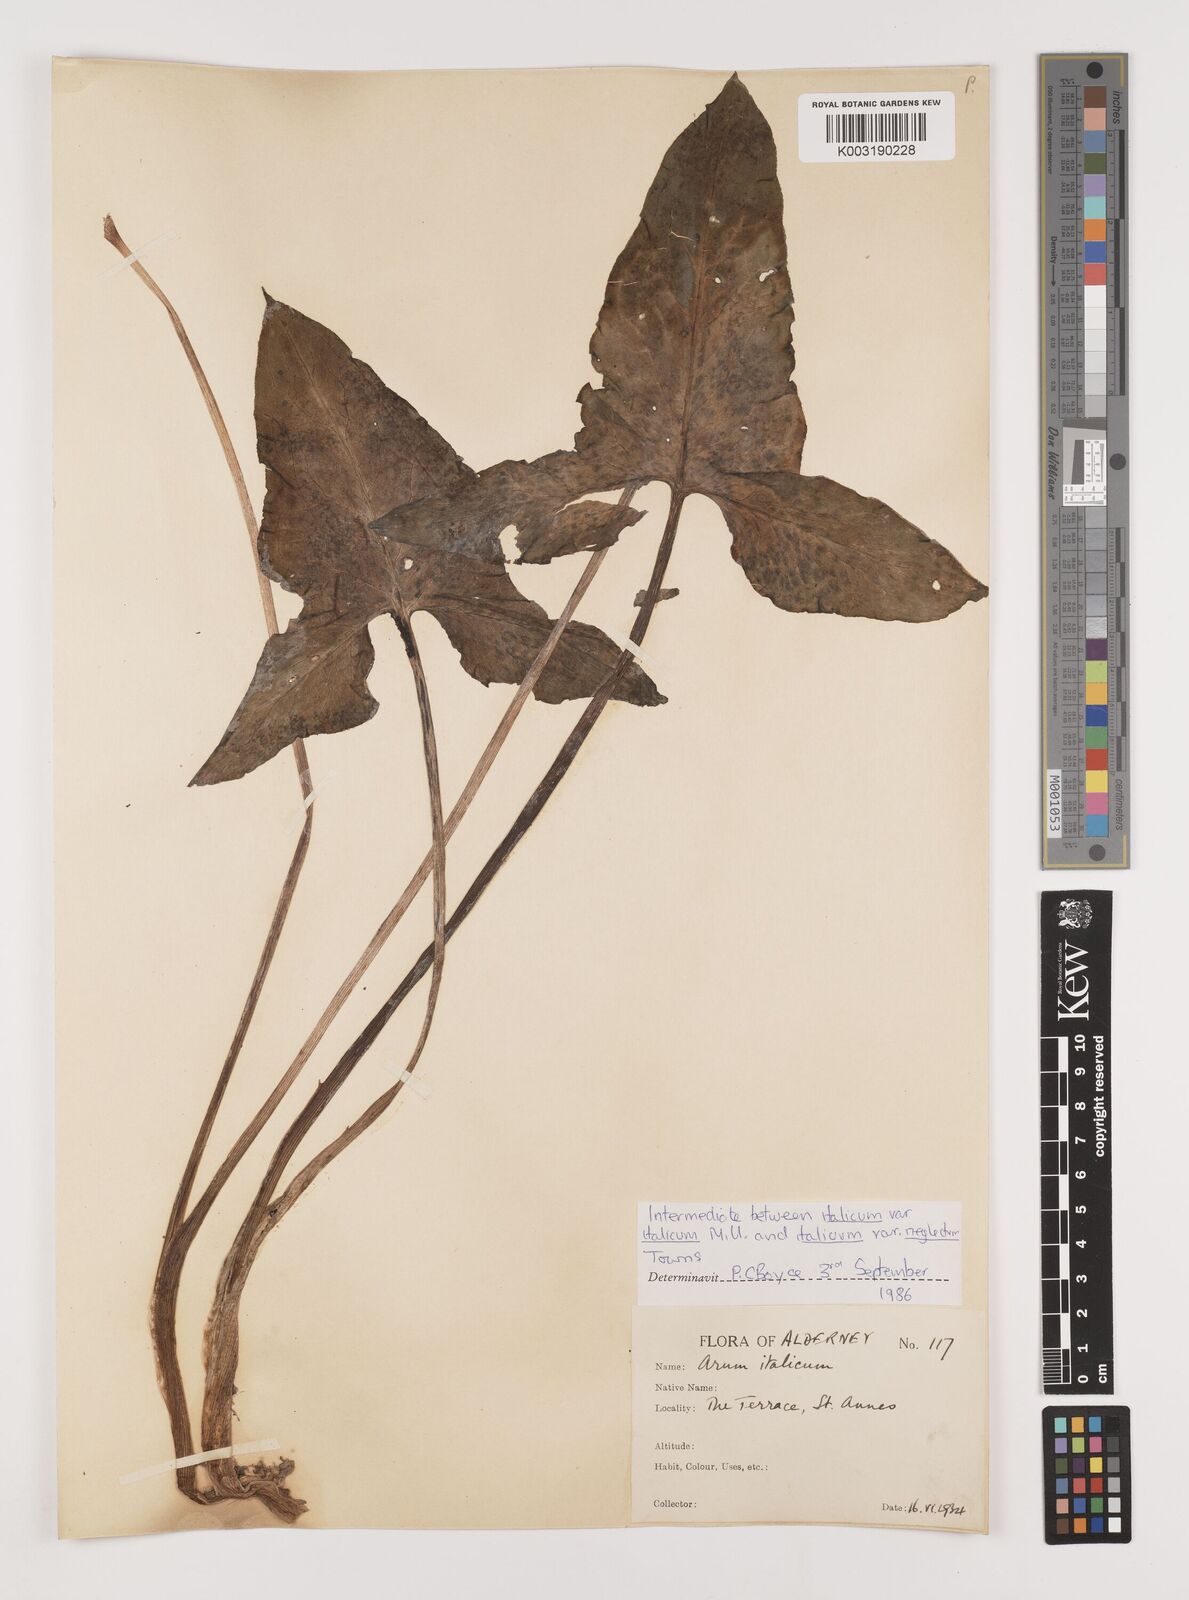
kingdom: Plantae
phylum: Tracheophyta
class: Liliopsida
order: Alismatales
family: Araceae
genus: Arum
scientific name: Arum italicum
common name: Italian lords-and-ladies
